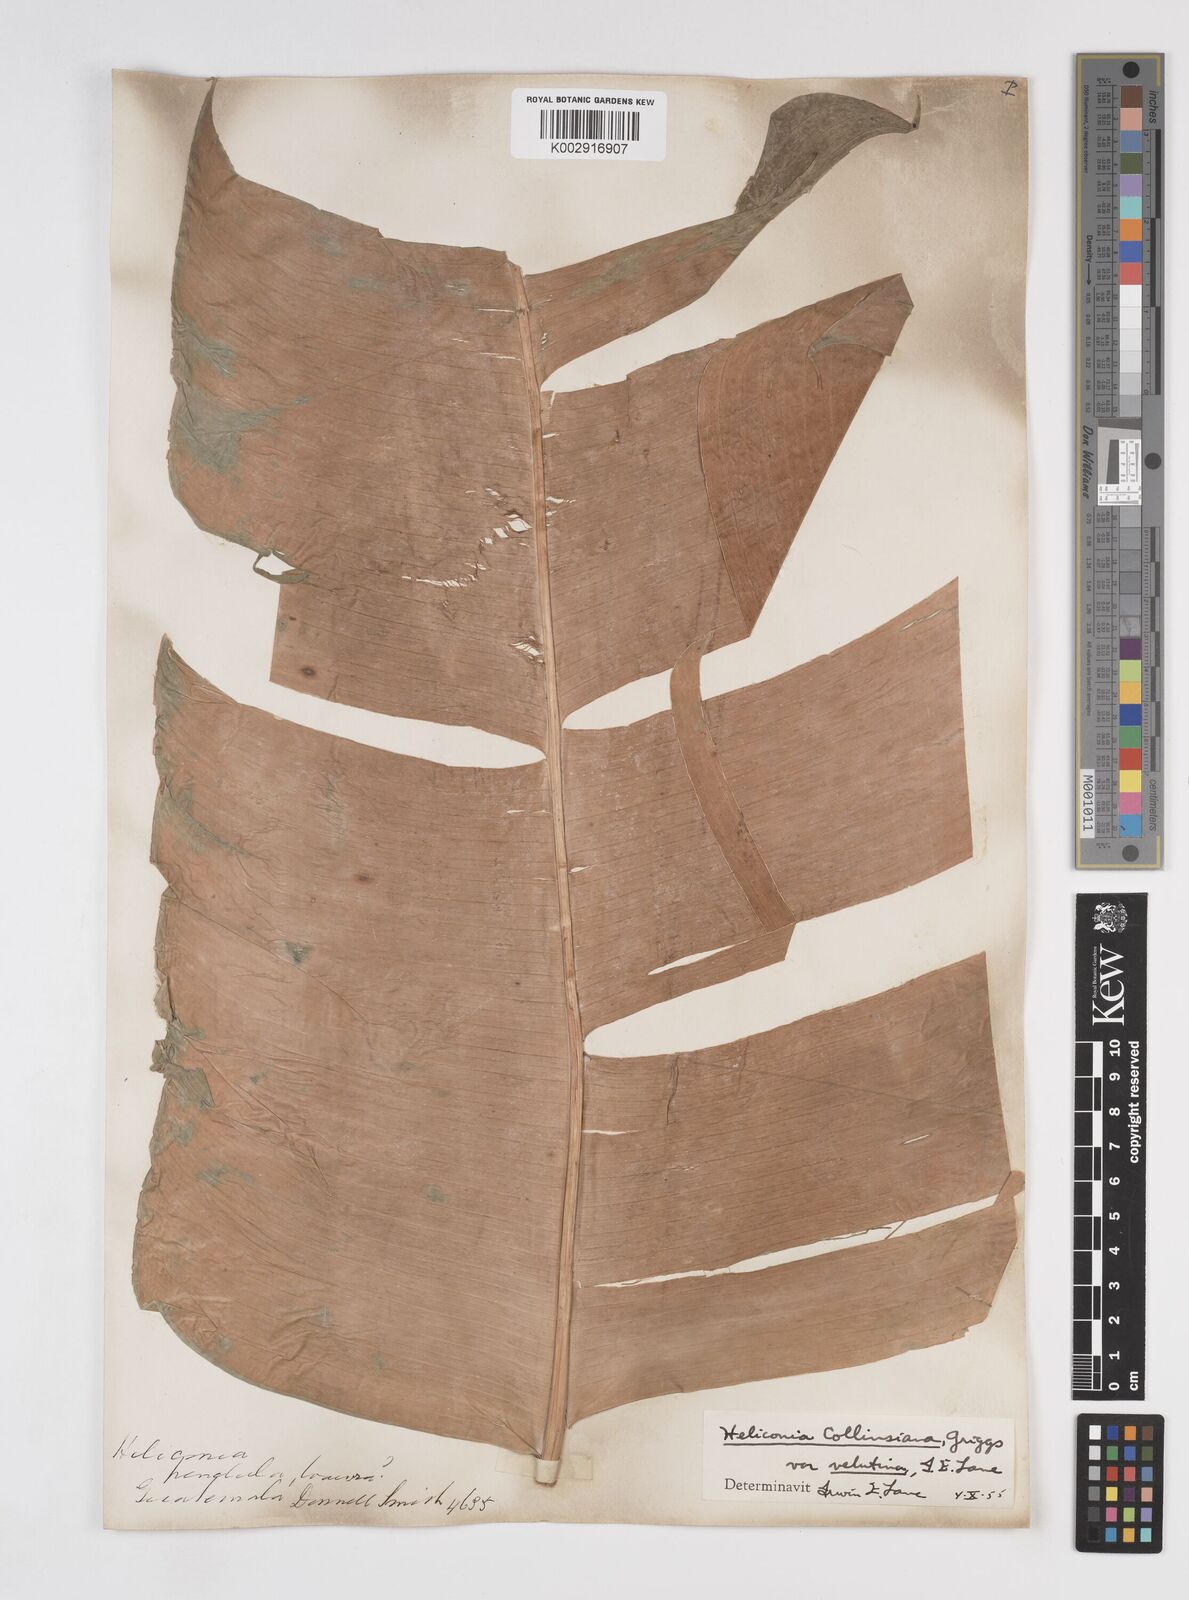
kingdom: Plantae
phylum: Tracheophyta
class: Liliopsida
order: Zingiberales
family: Heliconiaceae
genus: Heliconia
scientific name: Heliconia collinsiana
